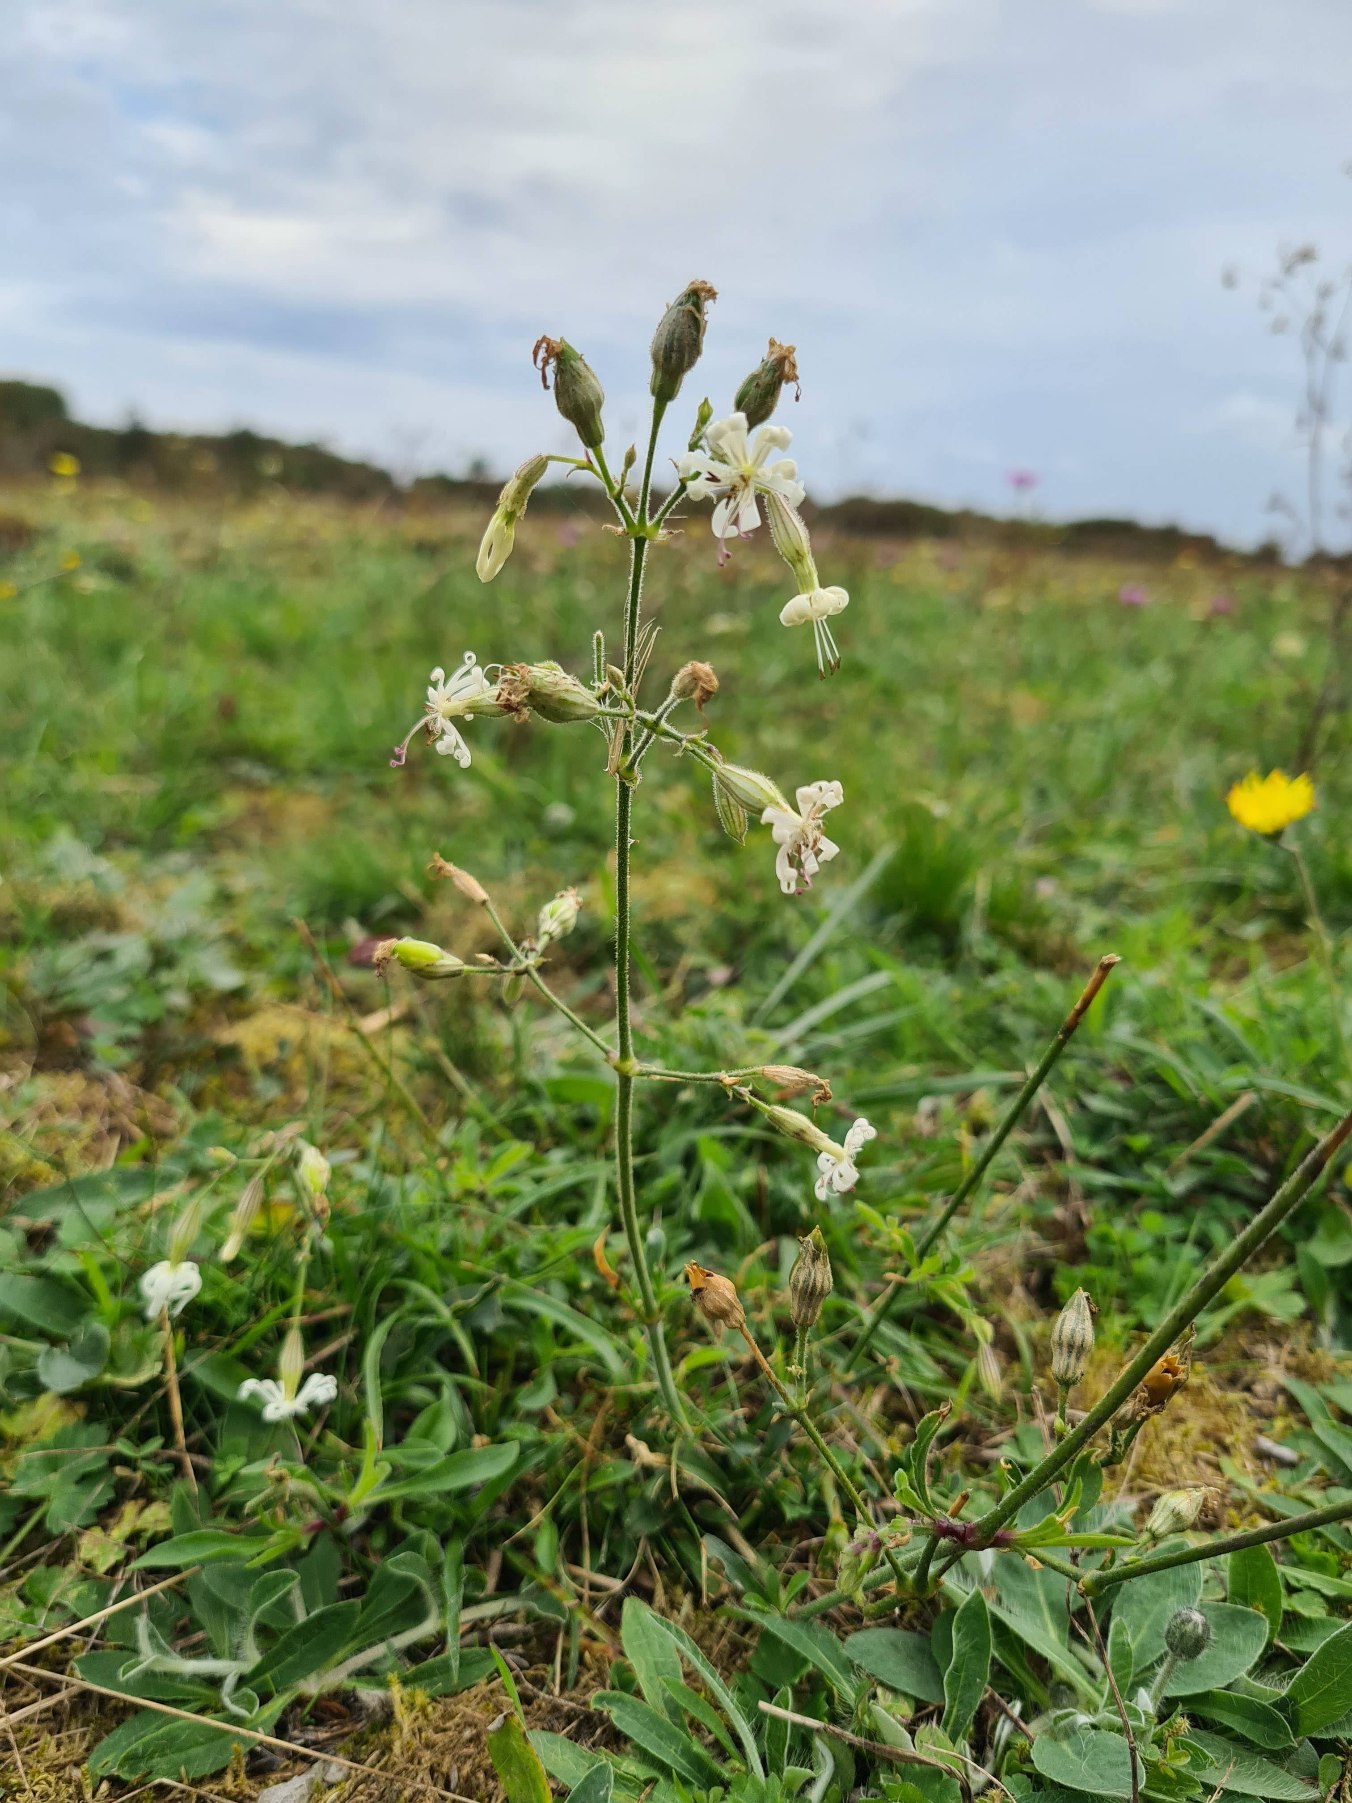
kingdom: Plantae
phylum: Tracheophyta
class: Magnoliopsida
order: Caryophyllales
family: Caryophyllaceae
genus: Silene
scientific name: Silene nutans
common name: Nikkende limurt
